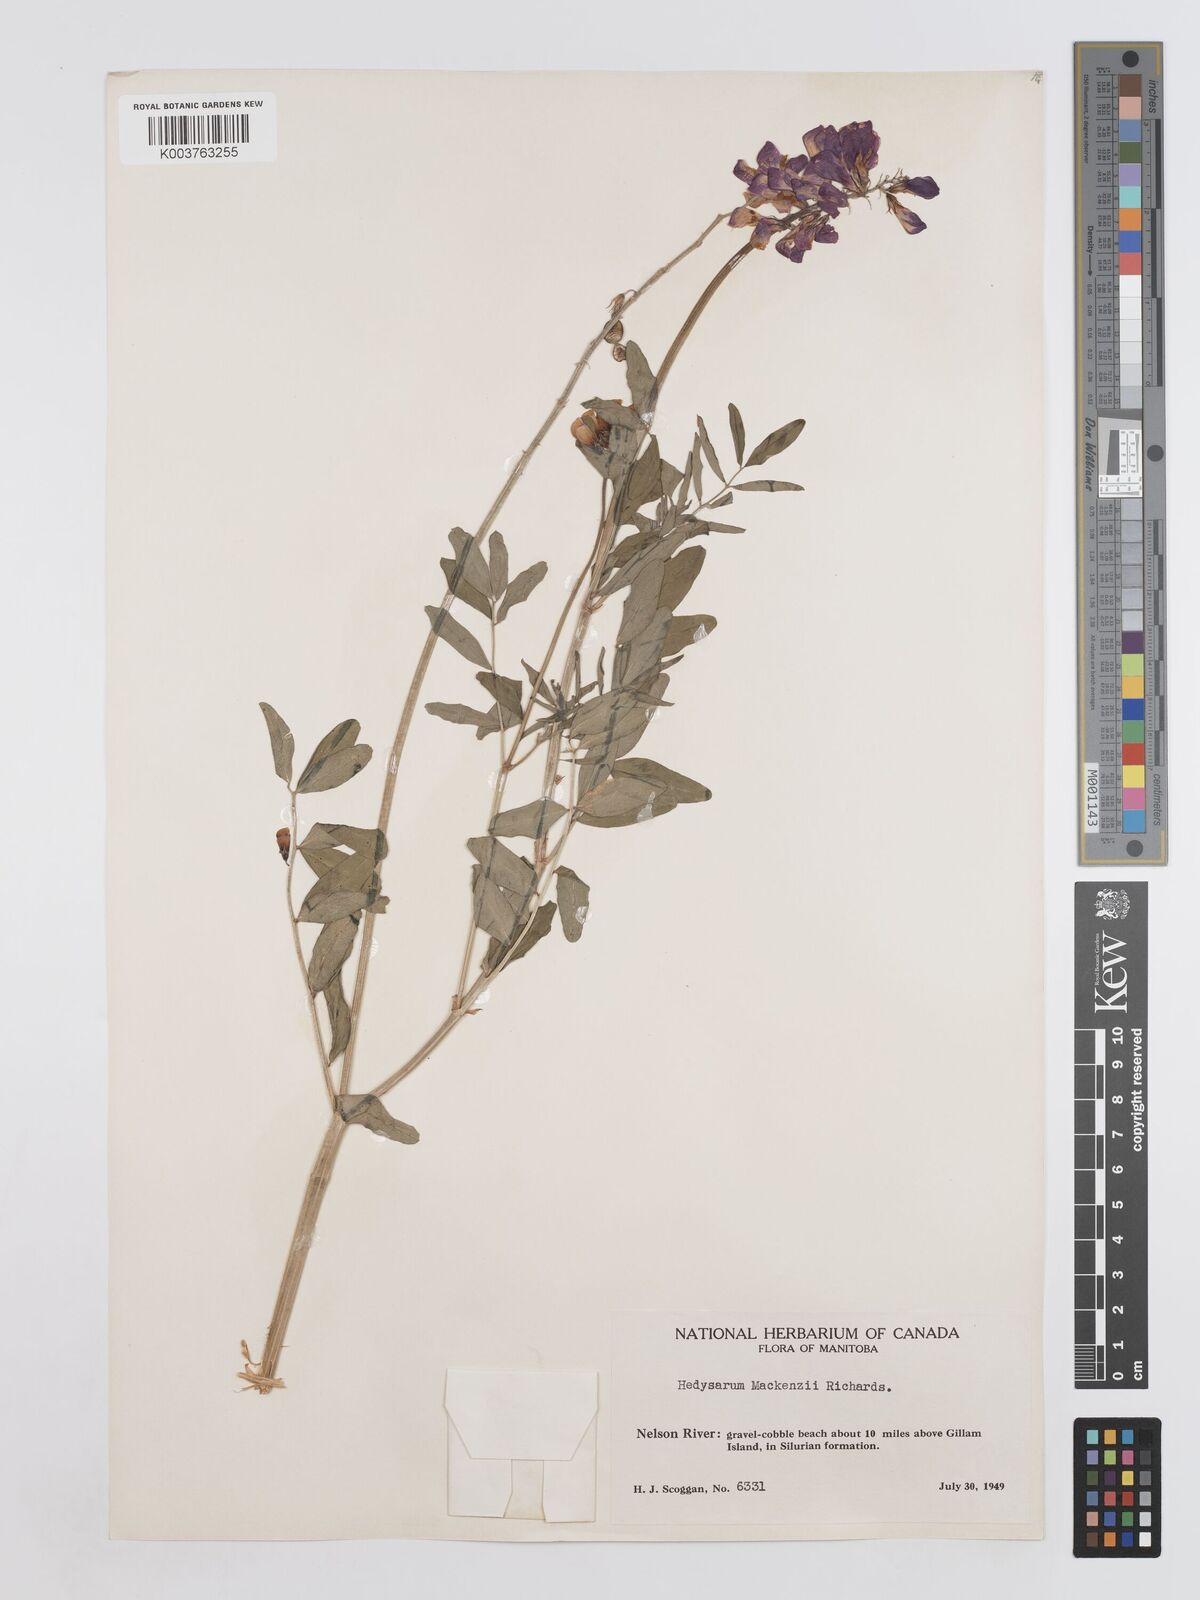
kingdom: Plantae
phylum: Tracheophyta
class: Magnoliopsida
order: Fabales
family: Fabaceae
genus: Hedysarum
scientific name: Hedysarum boreale
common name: Northern sweet-vetch
